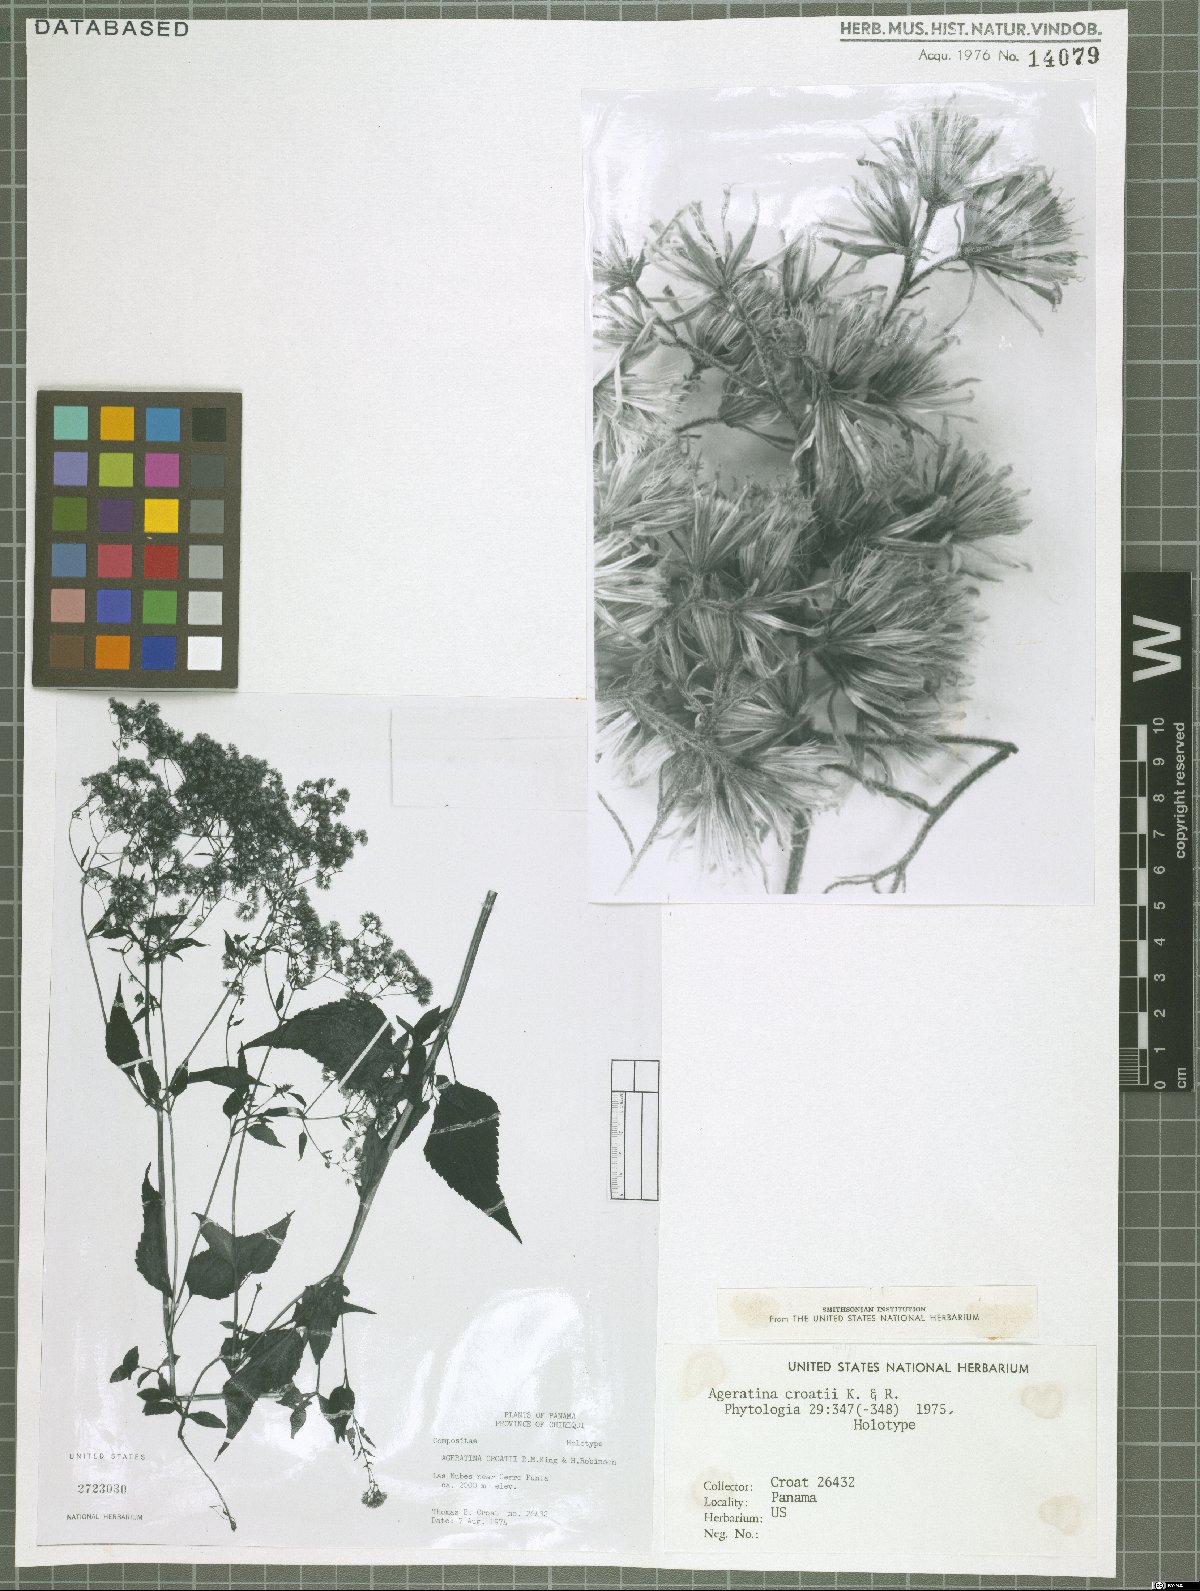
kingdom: Plantae
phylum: Tracheophyta
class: Magnoliopsida
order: Asterales
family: Asteraceae
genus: Ageratina
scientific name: Ageratina bustamenta
